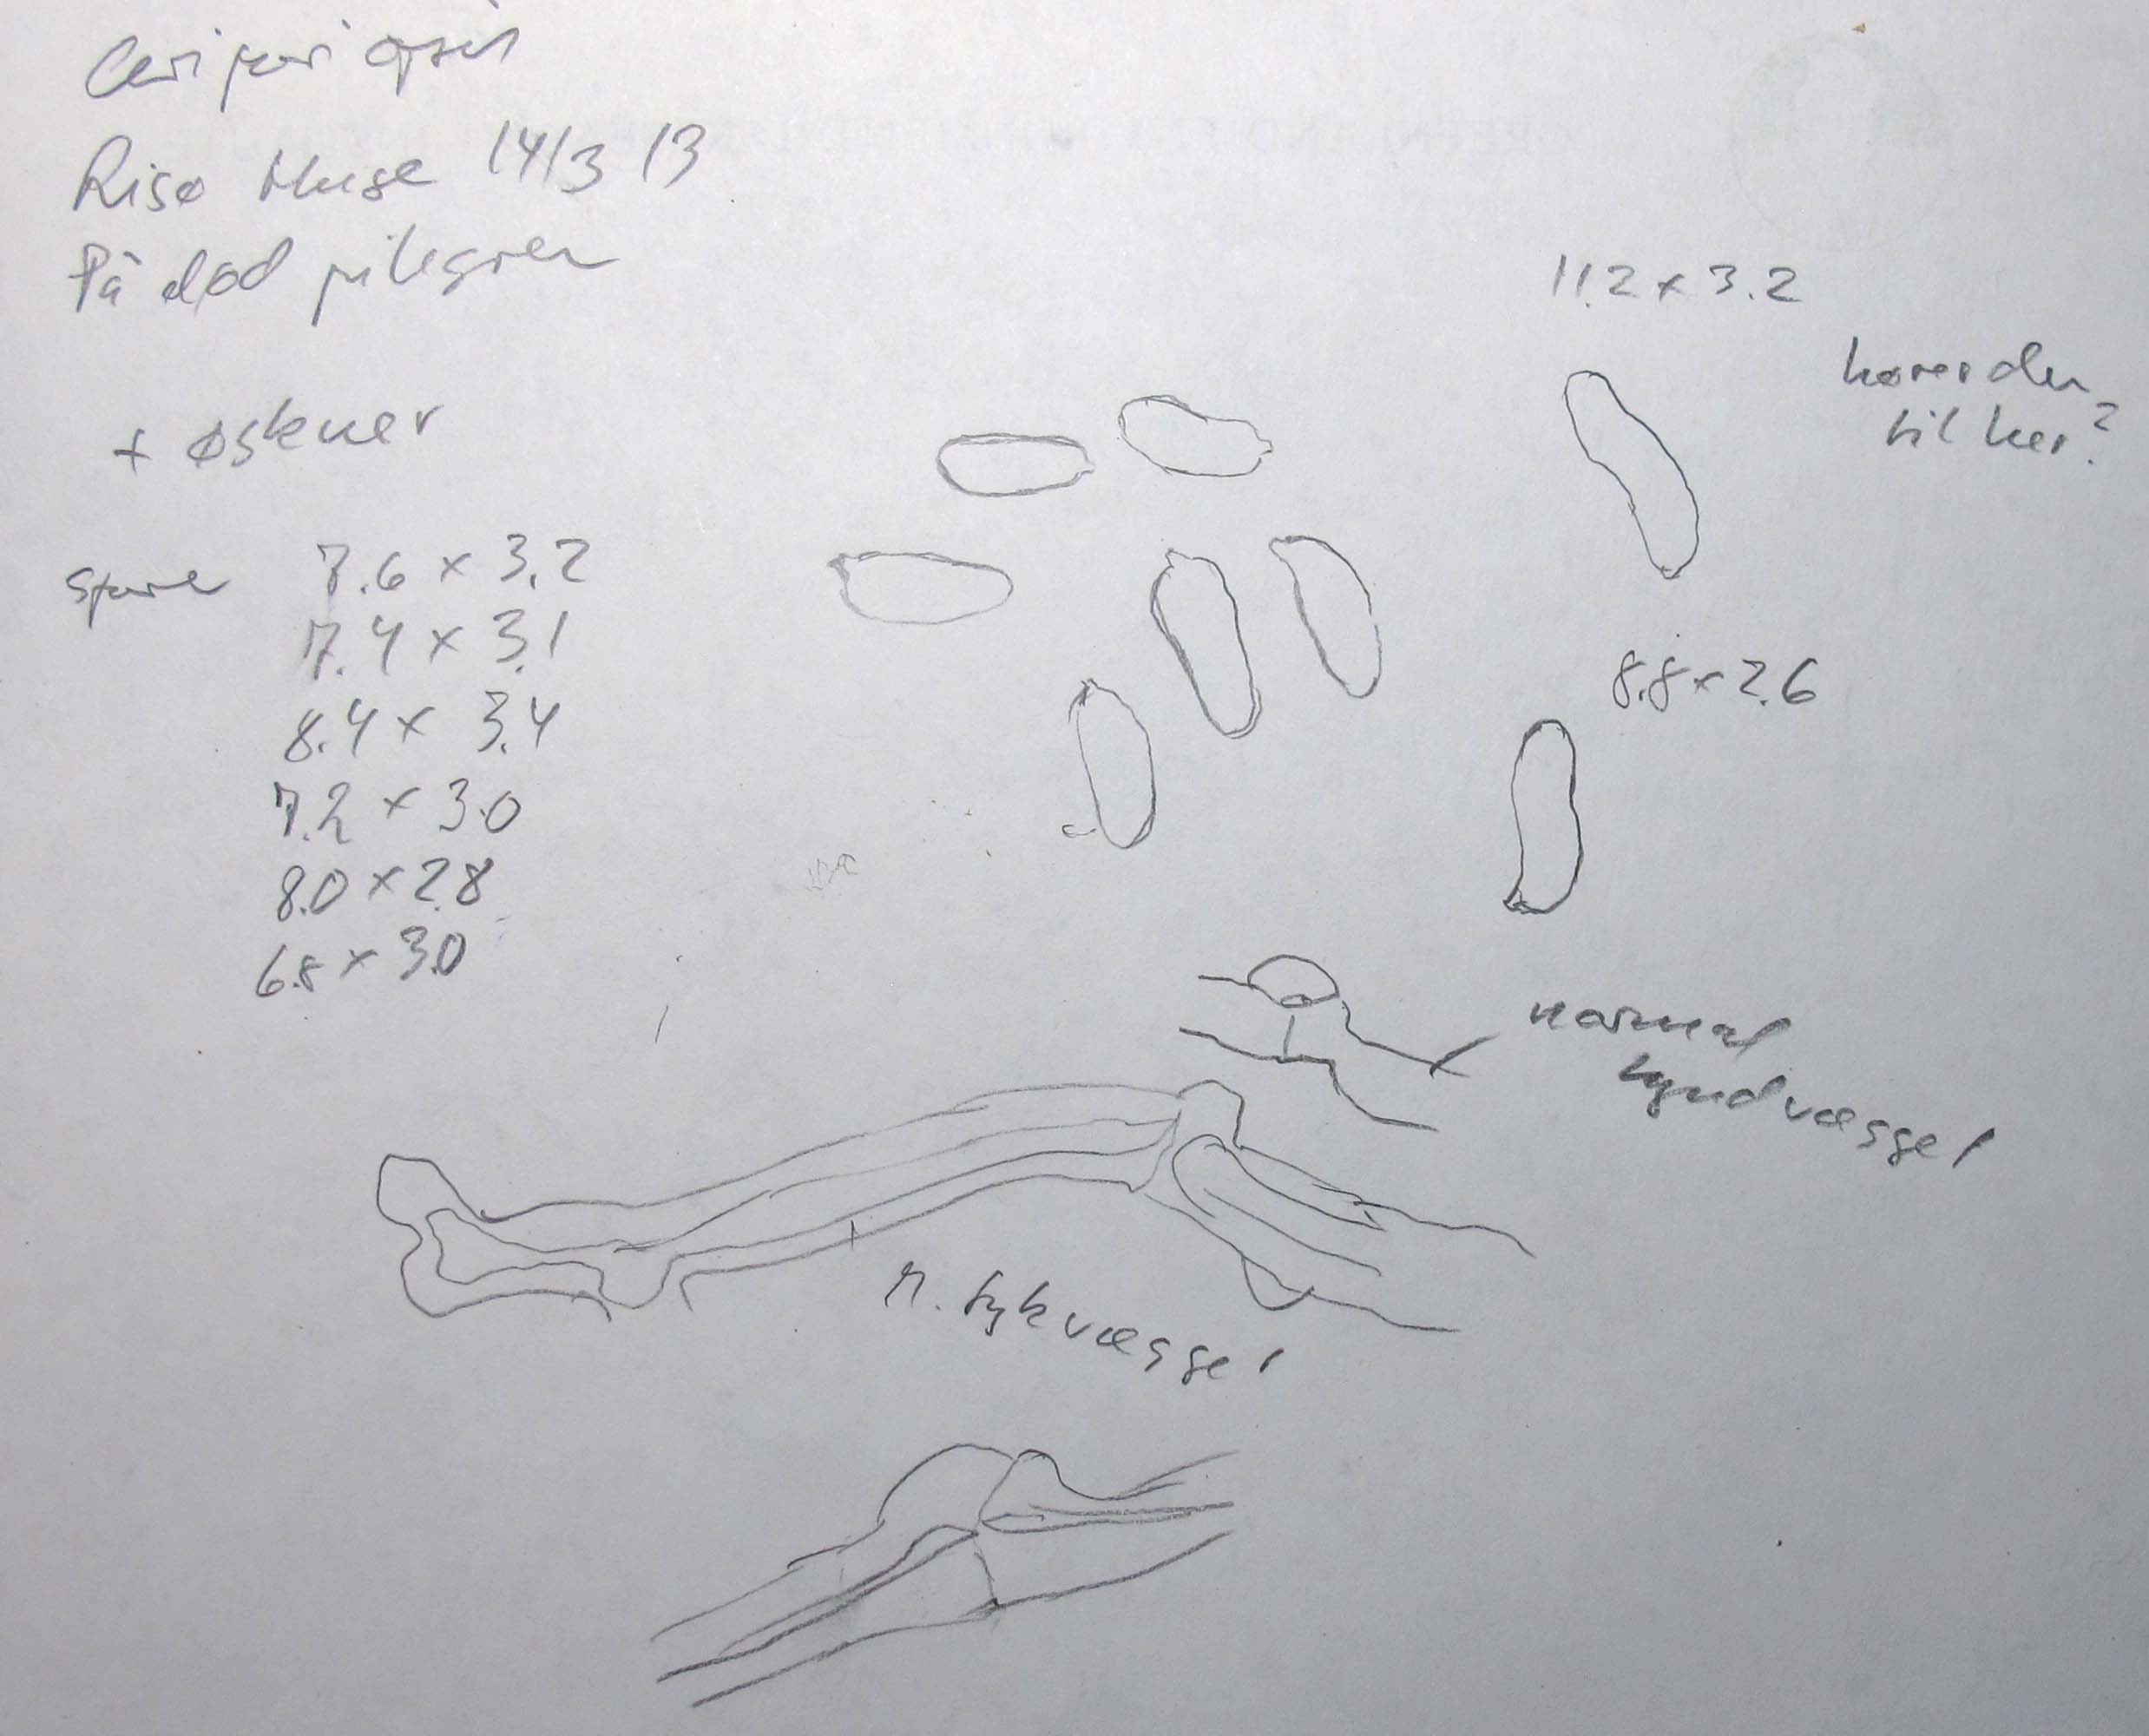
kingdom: Fungi
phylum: Basidiomycota
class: Agaricomycetes
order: Polyporales
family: Fomitopsidaceae
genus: Brunneoporus
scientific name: Brunneoporus kuzyanus
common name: brunlig sejporesvamp
